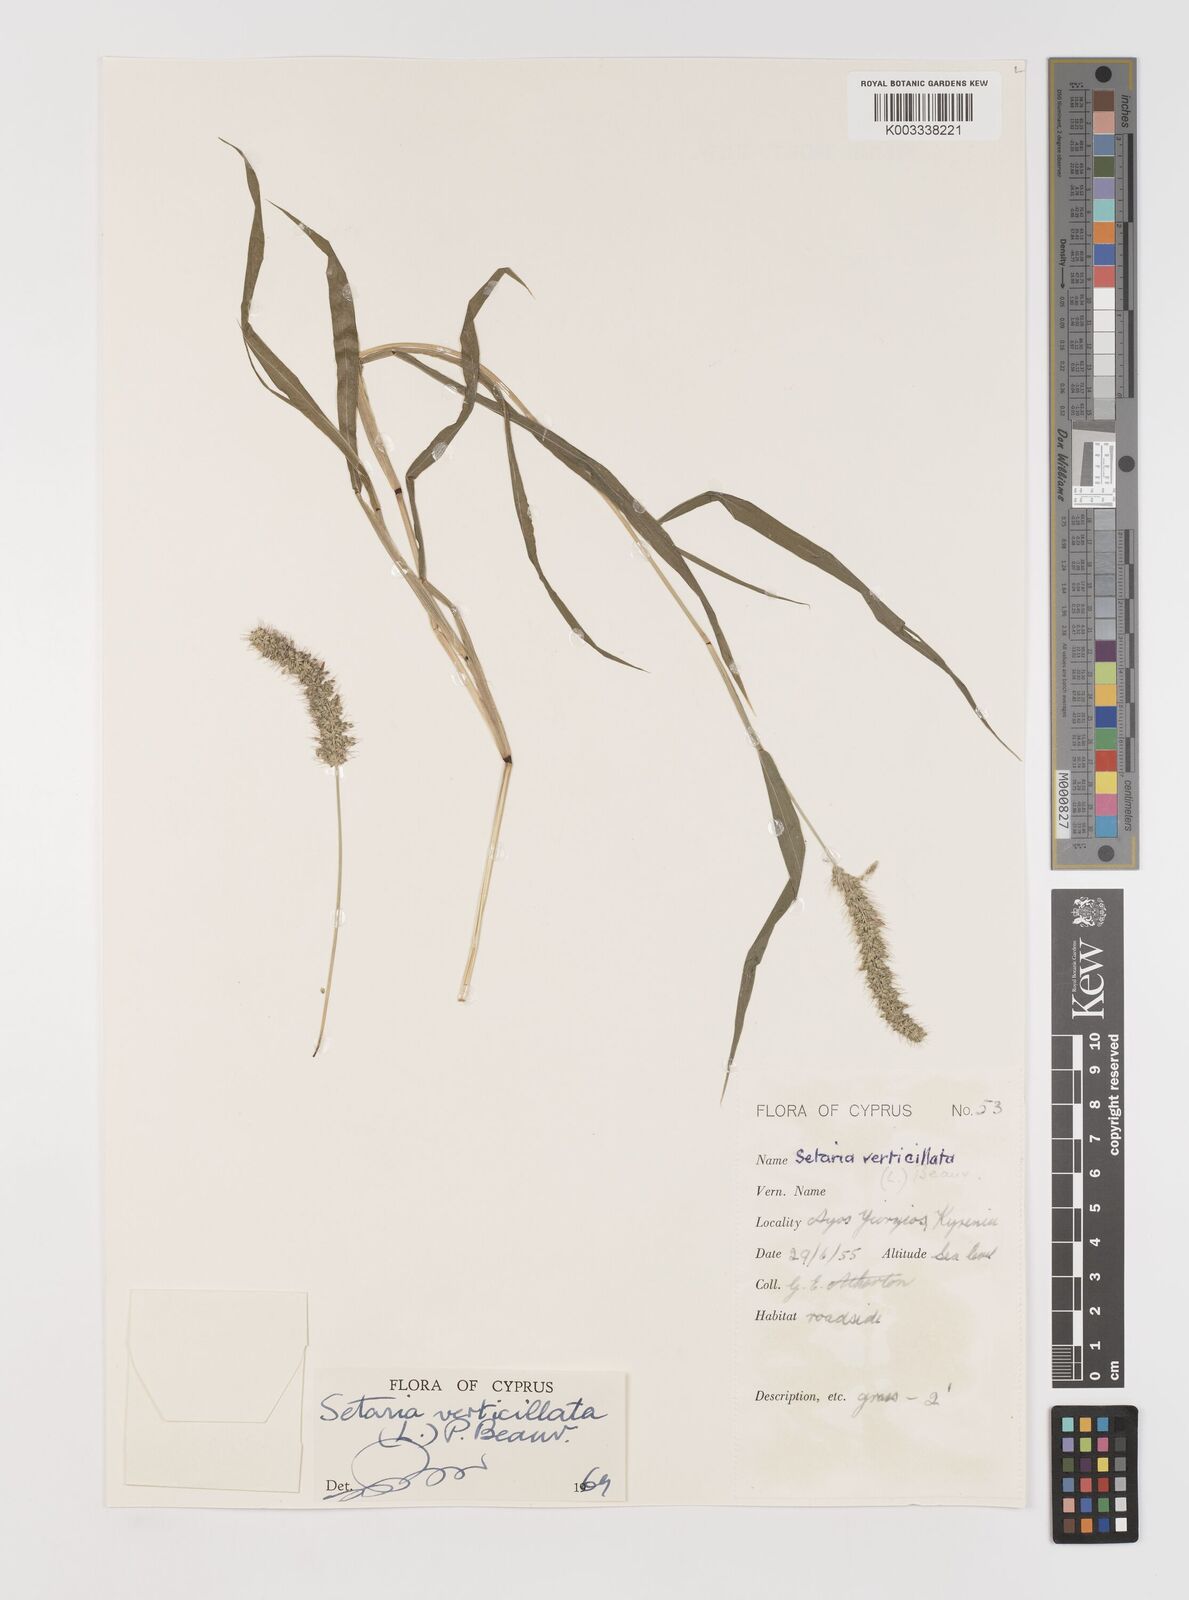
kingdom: Plantae
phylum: Tracheophyta
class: Liliopsida
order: Poales
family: Poaceae
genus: Setaria
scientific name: Setaria verticillata
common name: Hooked bristlegrass
